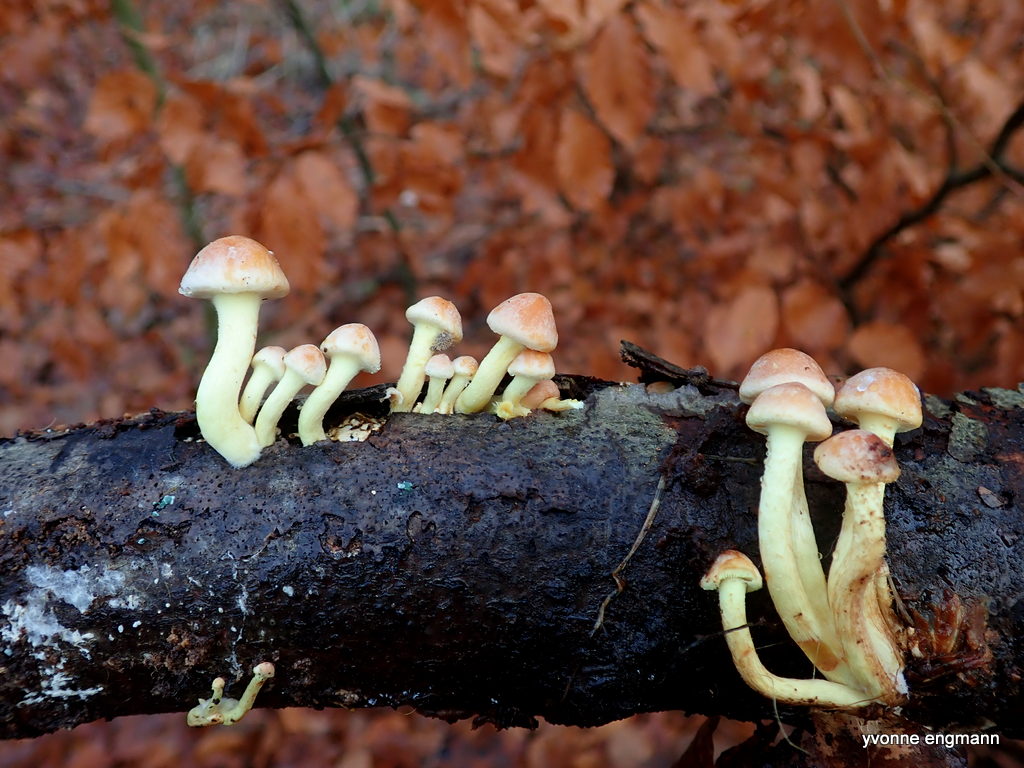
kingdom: Fungi
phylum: Basidiomycota
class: Agaricomycetes
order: Agaricales
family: Strophariaceae
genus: Hypholoma
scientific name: Hypholoma
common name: svovlhat
